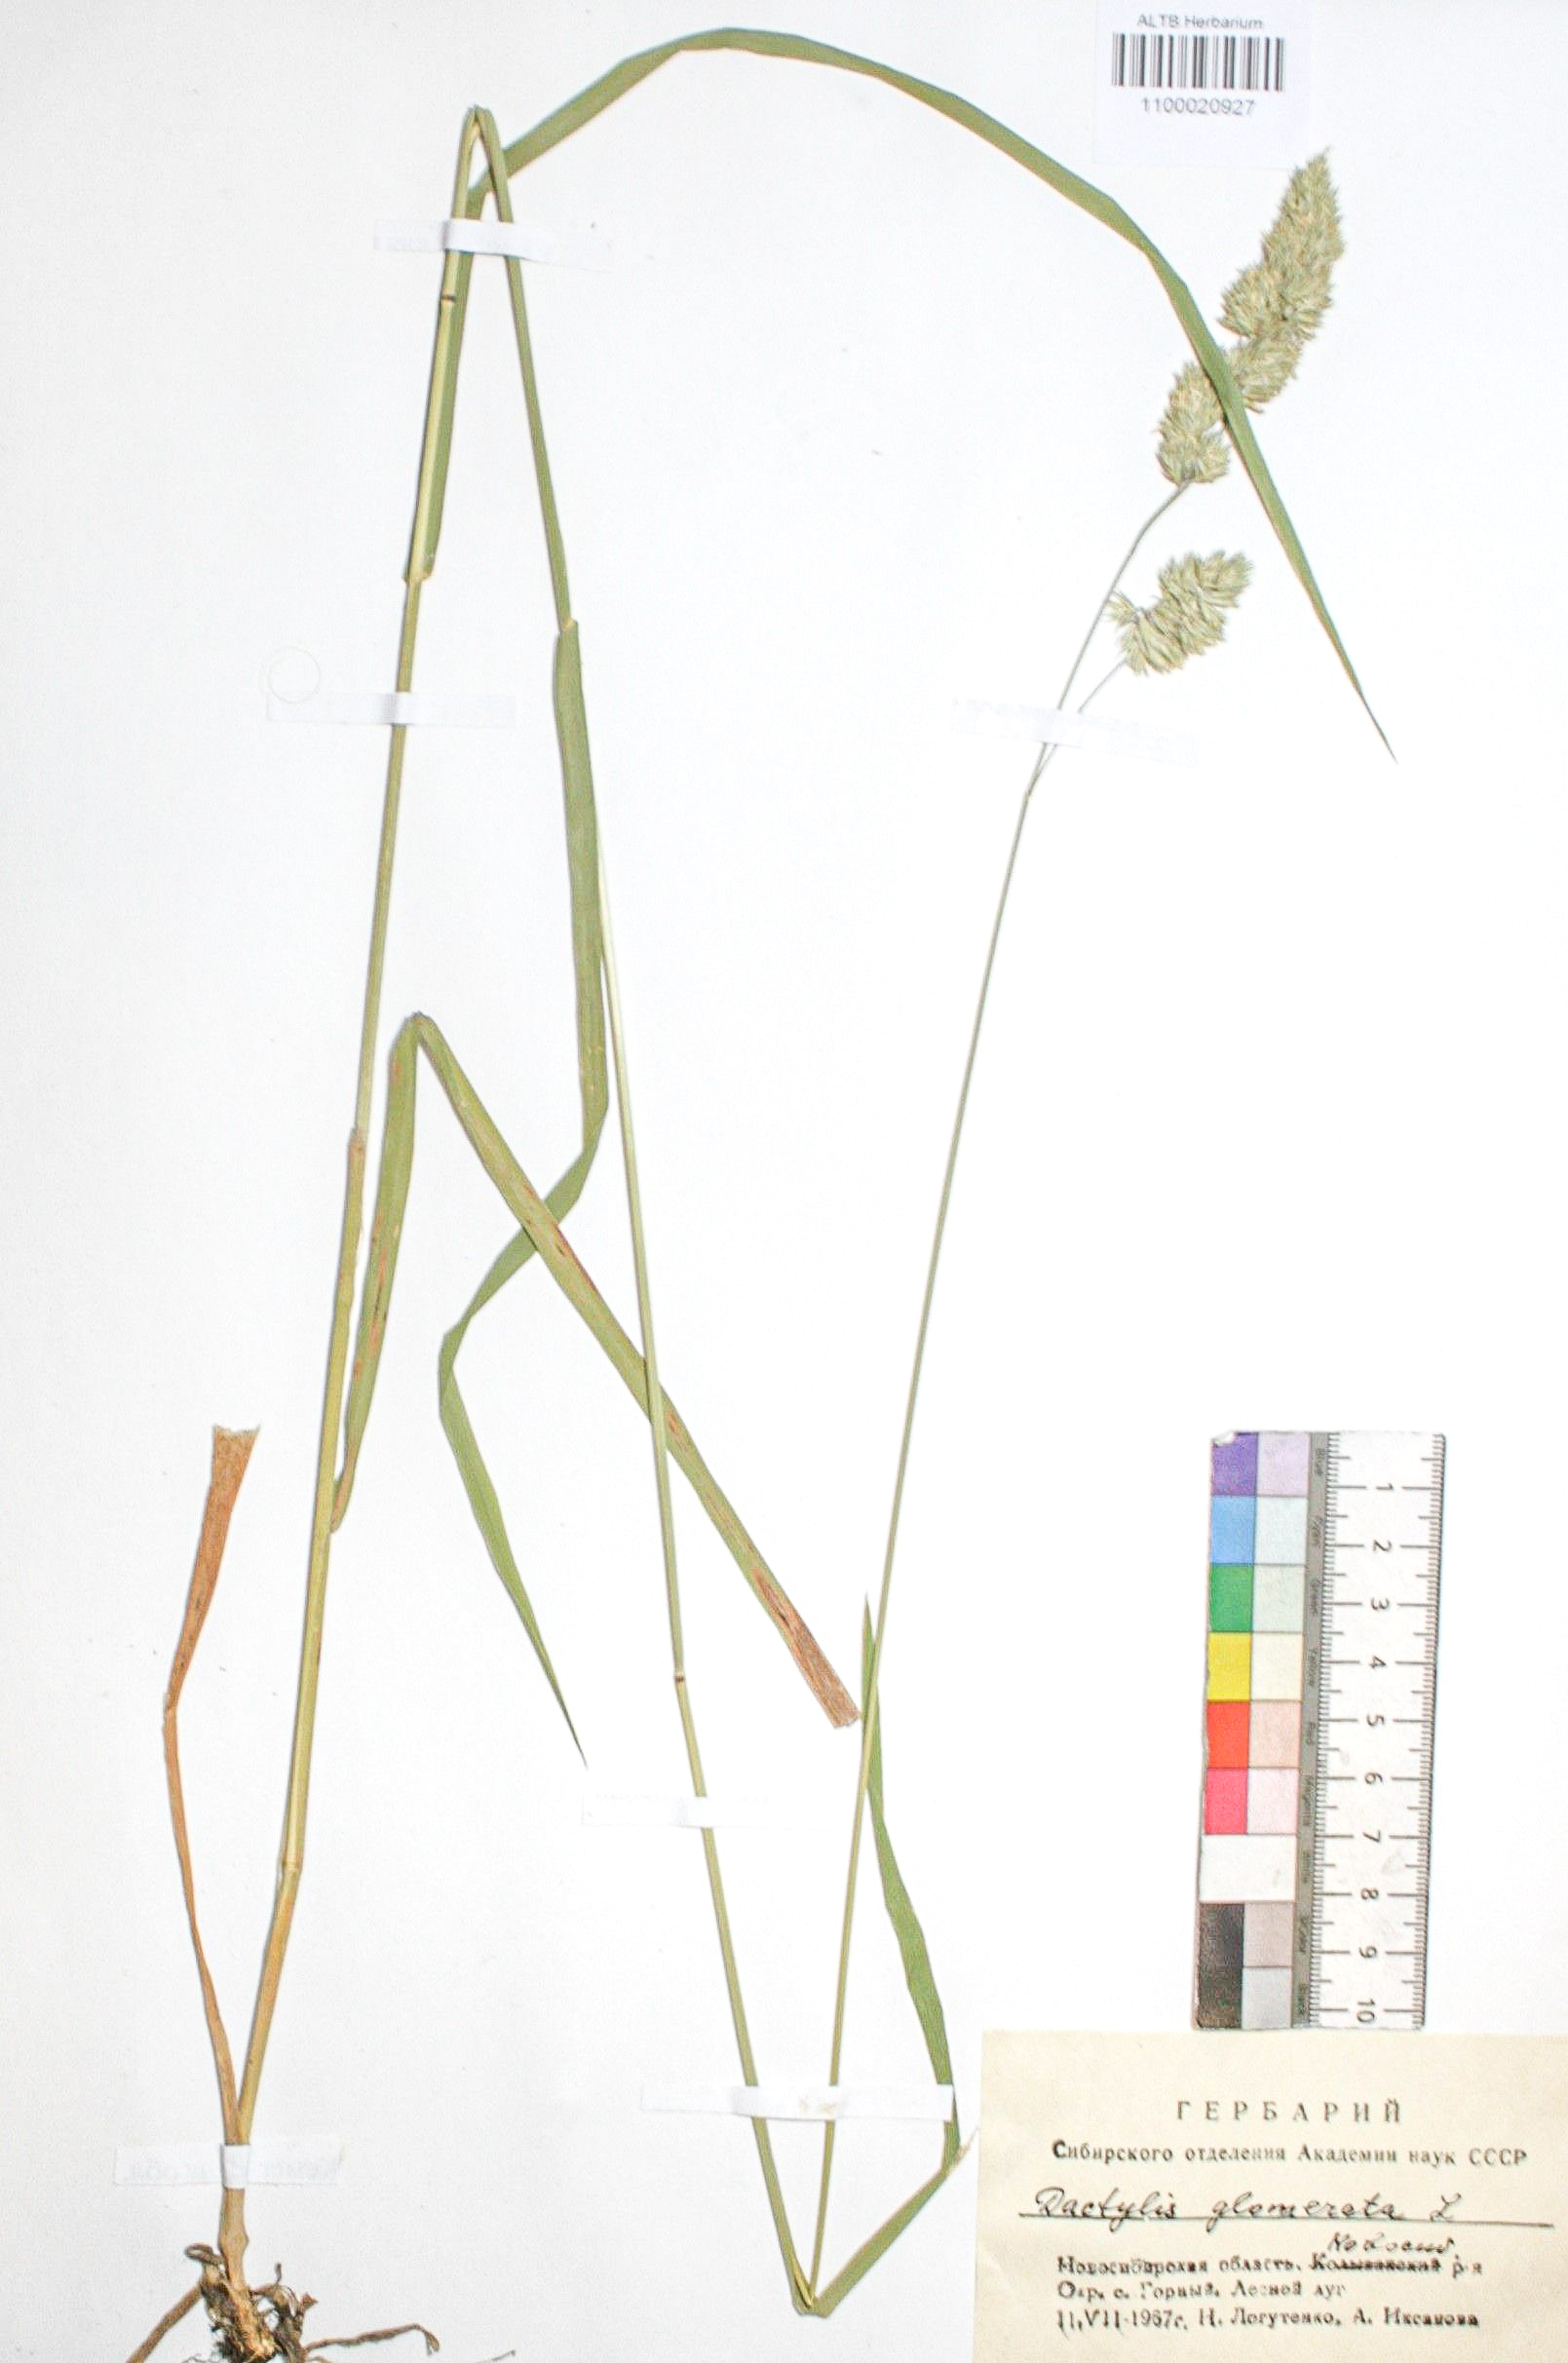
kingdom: Plantae
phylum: Tracheophyta
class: Liliopsida
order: Poales
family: Poaceae
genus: Dactylis
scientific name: Dactylis glomerata
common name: Orchardgrass
